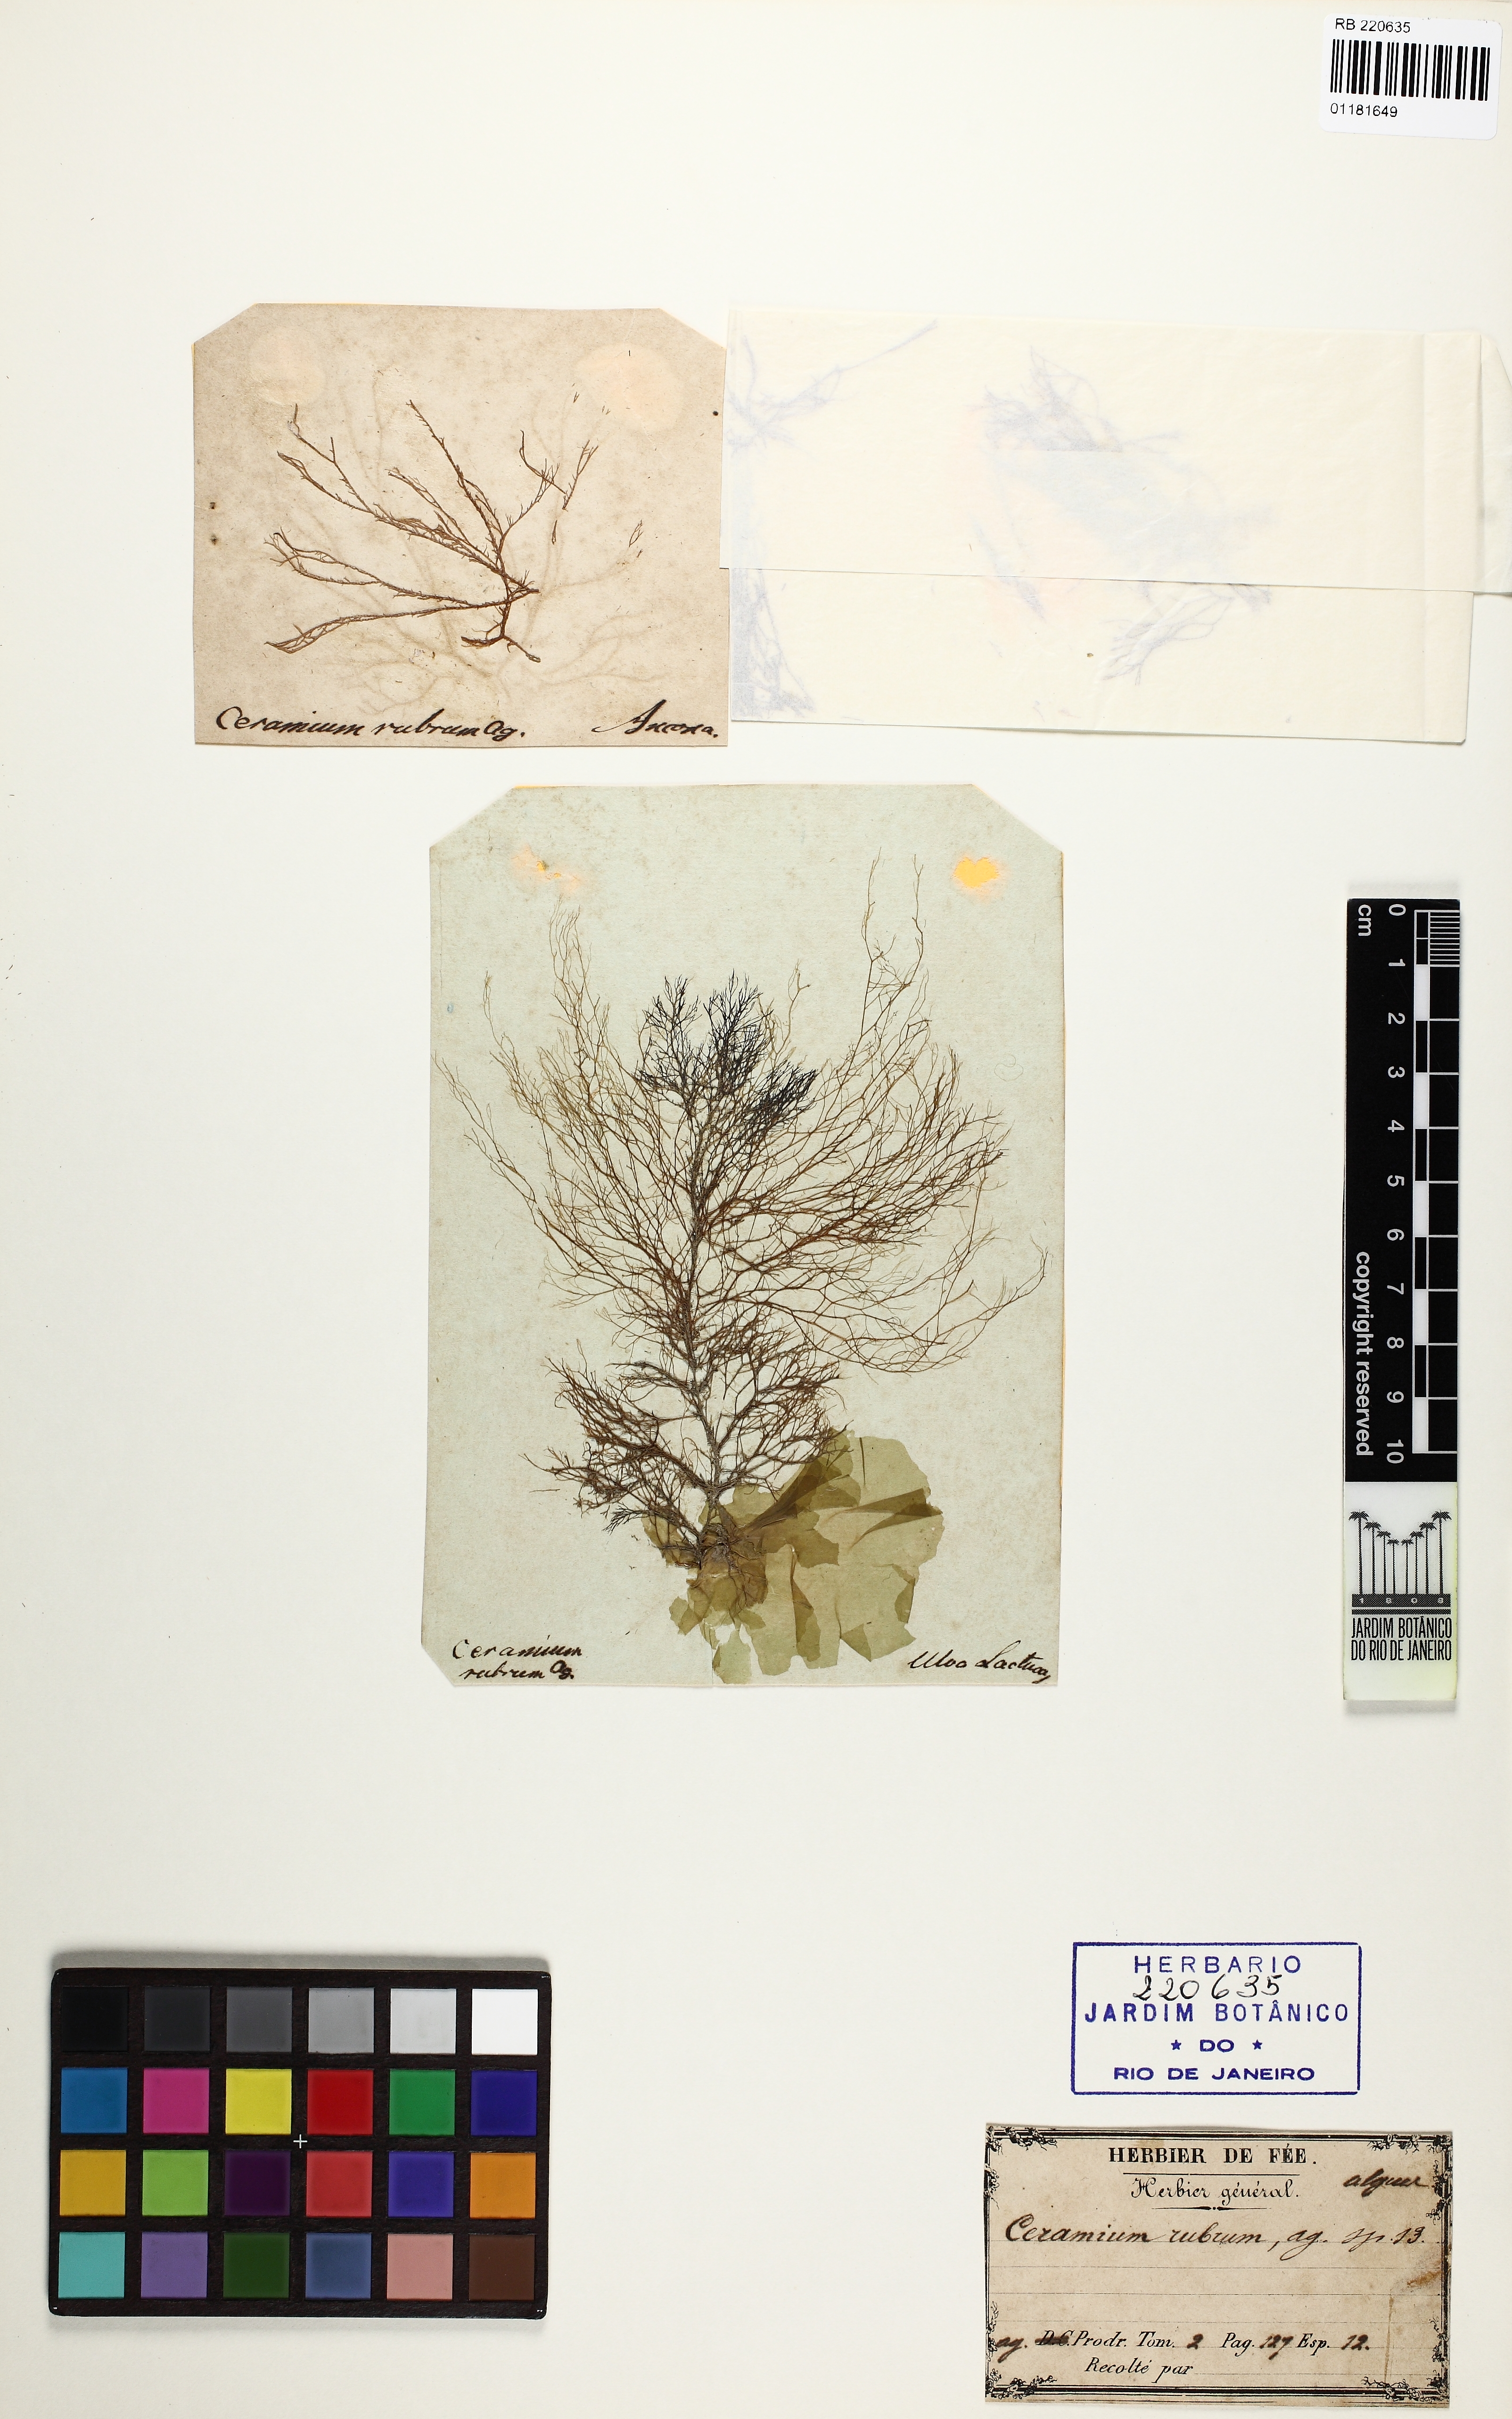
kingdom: Plantae
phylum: Rhodophyta
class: Florideophyceae
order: Ceramiales
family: Ceramiaceae
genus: Ceramium
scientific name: Ceramium virgatum
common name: Red hornweed
